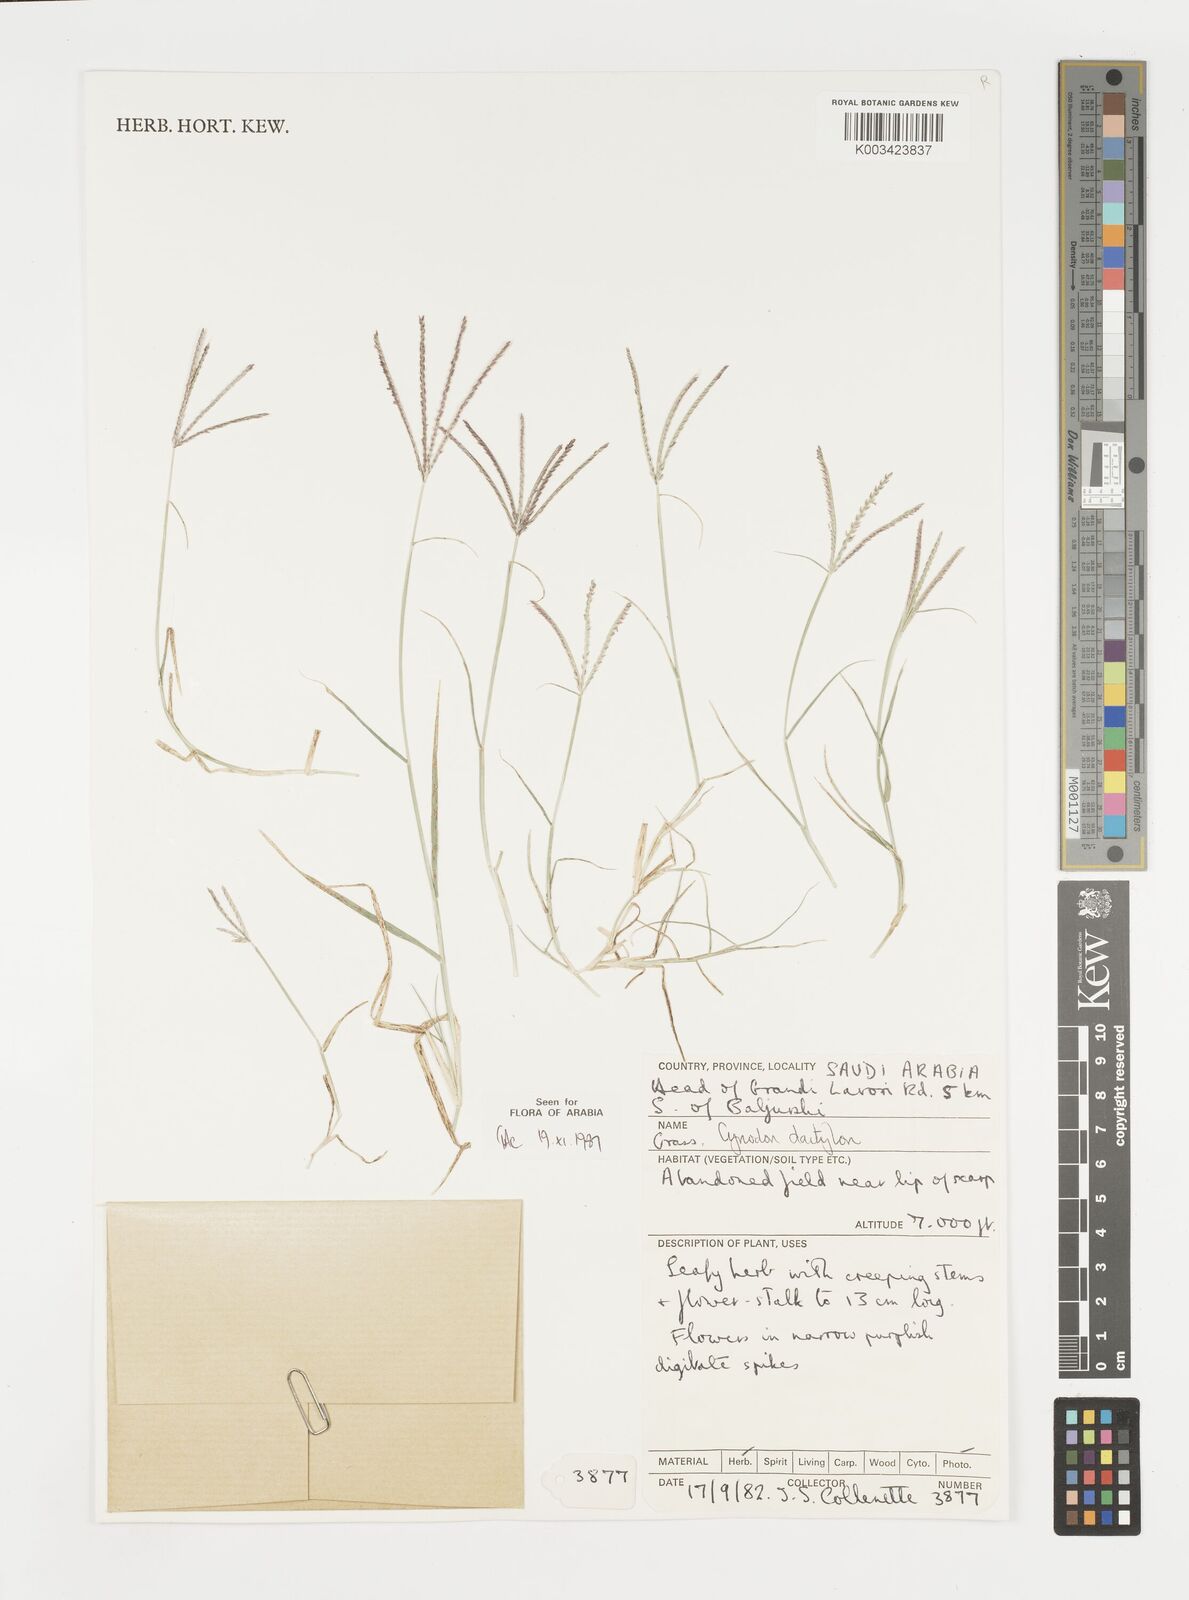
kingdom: Plantae
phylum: Tracheophyta
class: Liliopsida
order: Poales
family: Poaceae
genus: Cynodon
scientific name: Cynodon dactylon
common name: Bermuda grass
